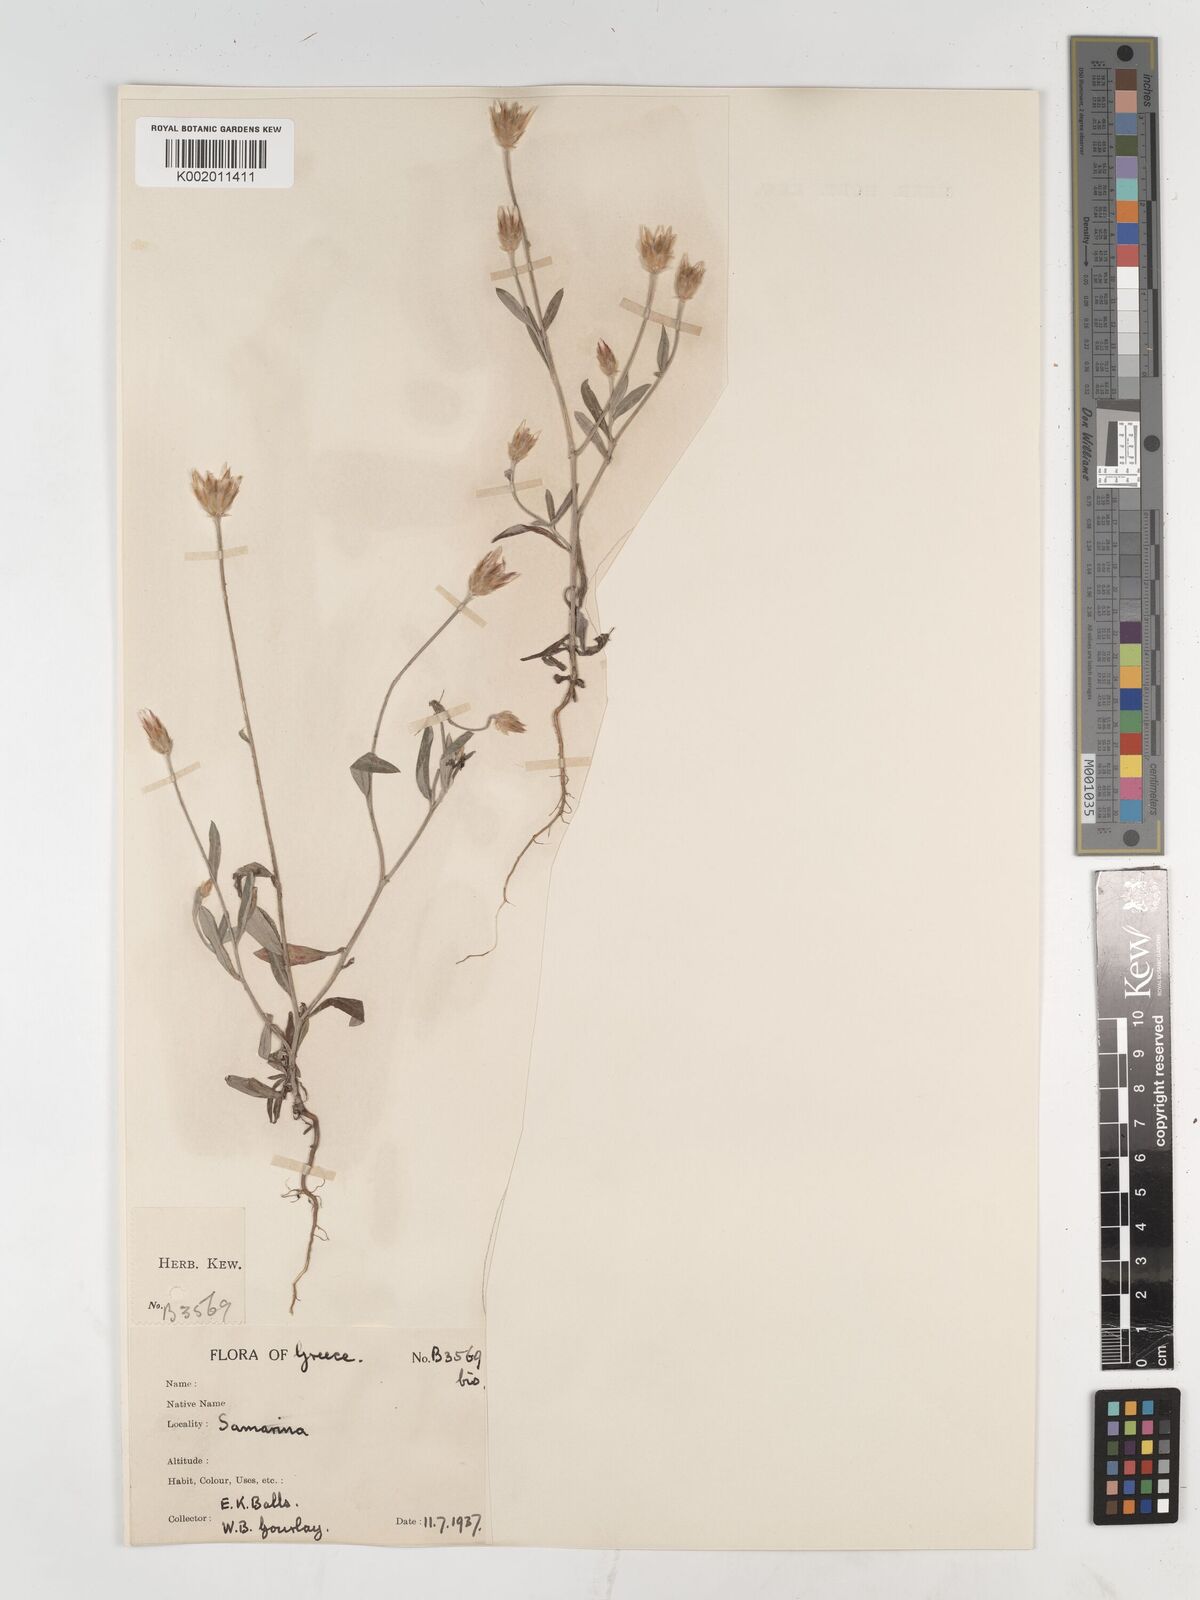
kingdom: Plantae
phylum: Tracheophyta
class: Magnoliopsida
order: Asterales
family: Asteraceae
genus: Xeranthemum
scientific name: Xeranthemum inapertum
